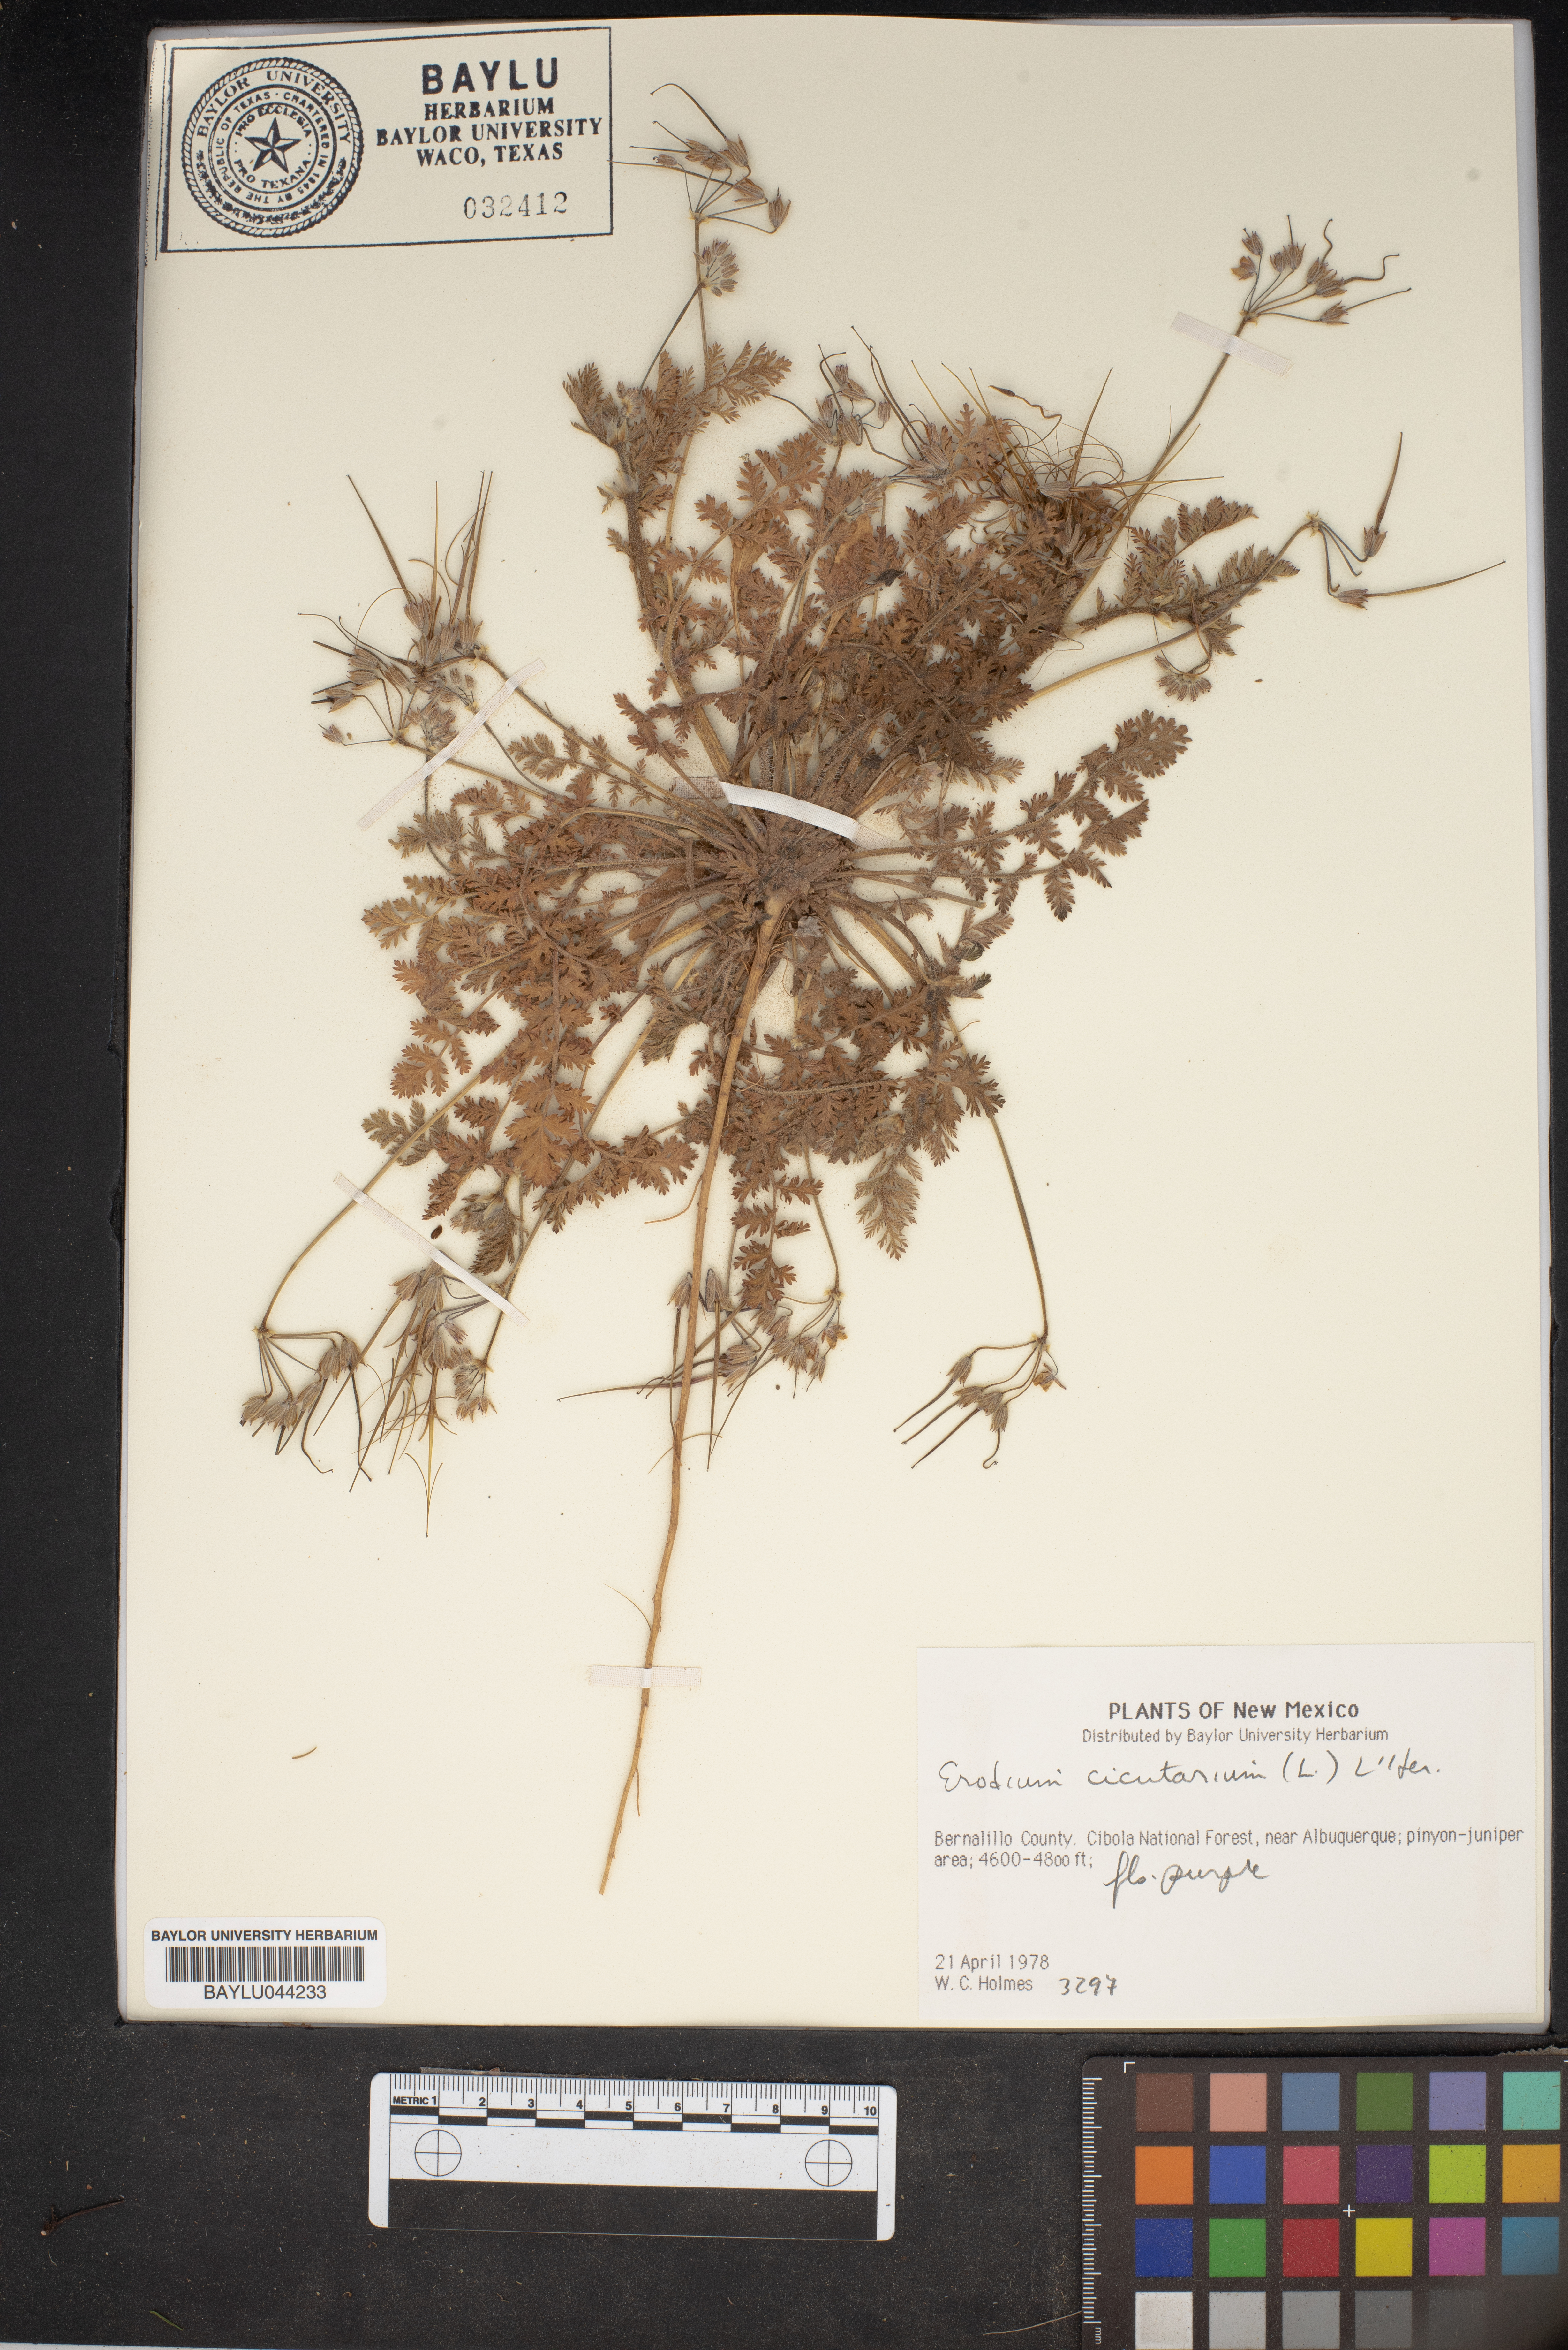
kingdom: Plantae
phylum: Tracheophyta
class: Magnoliopsida
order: Geraniales
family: Geraniaceae
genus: Erodium
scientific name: Erodium cicutarium
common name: Common stork's-bill
